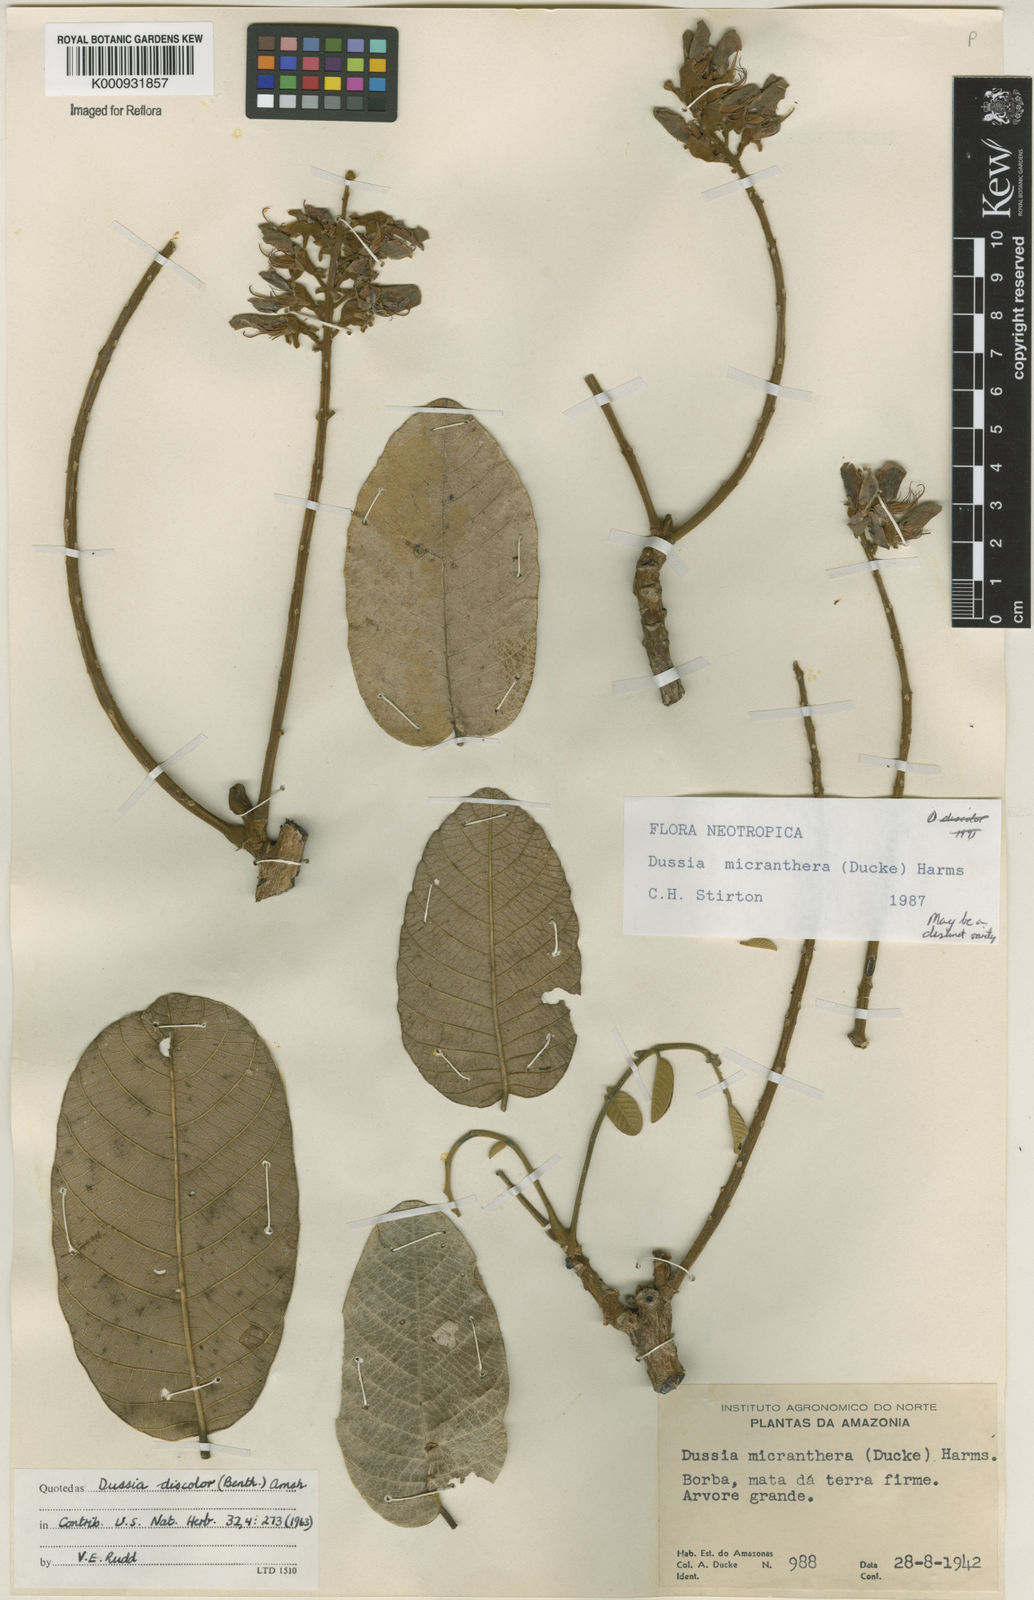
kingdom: Plantae
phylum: Tracheophyta
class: Magnoliopsida
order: Fabales
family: Fabaceae
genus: Dussia
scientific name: Dussia discolor
